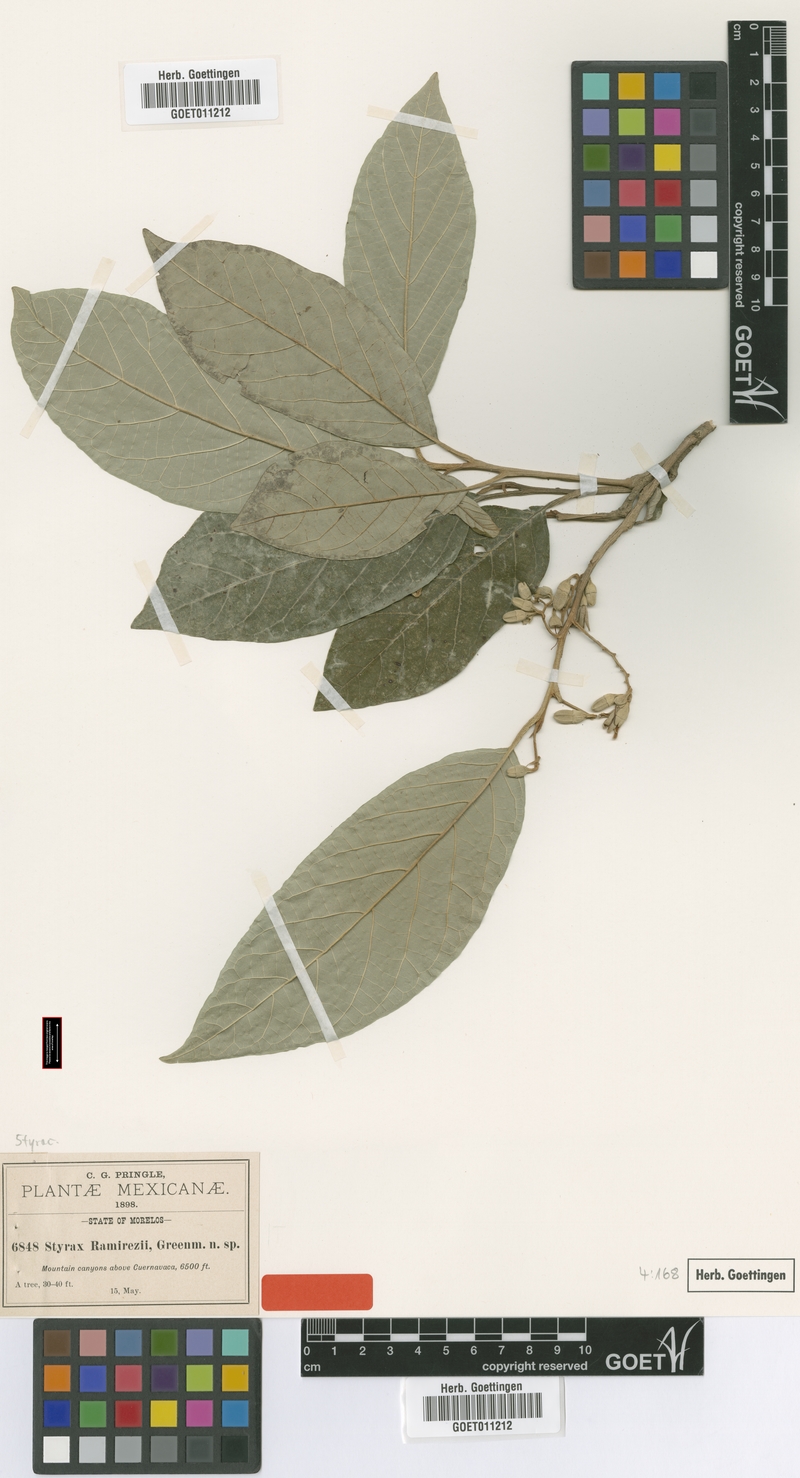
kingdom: Plantae
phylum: Tracheophyta
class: Magnoliopsida
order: Ericales
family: Styracaceae
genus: Styrax
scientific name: Styrax argenteus
